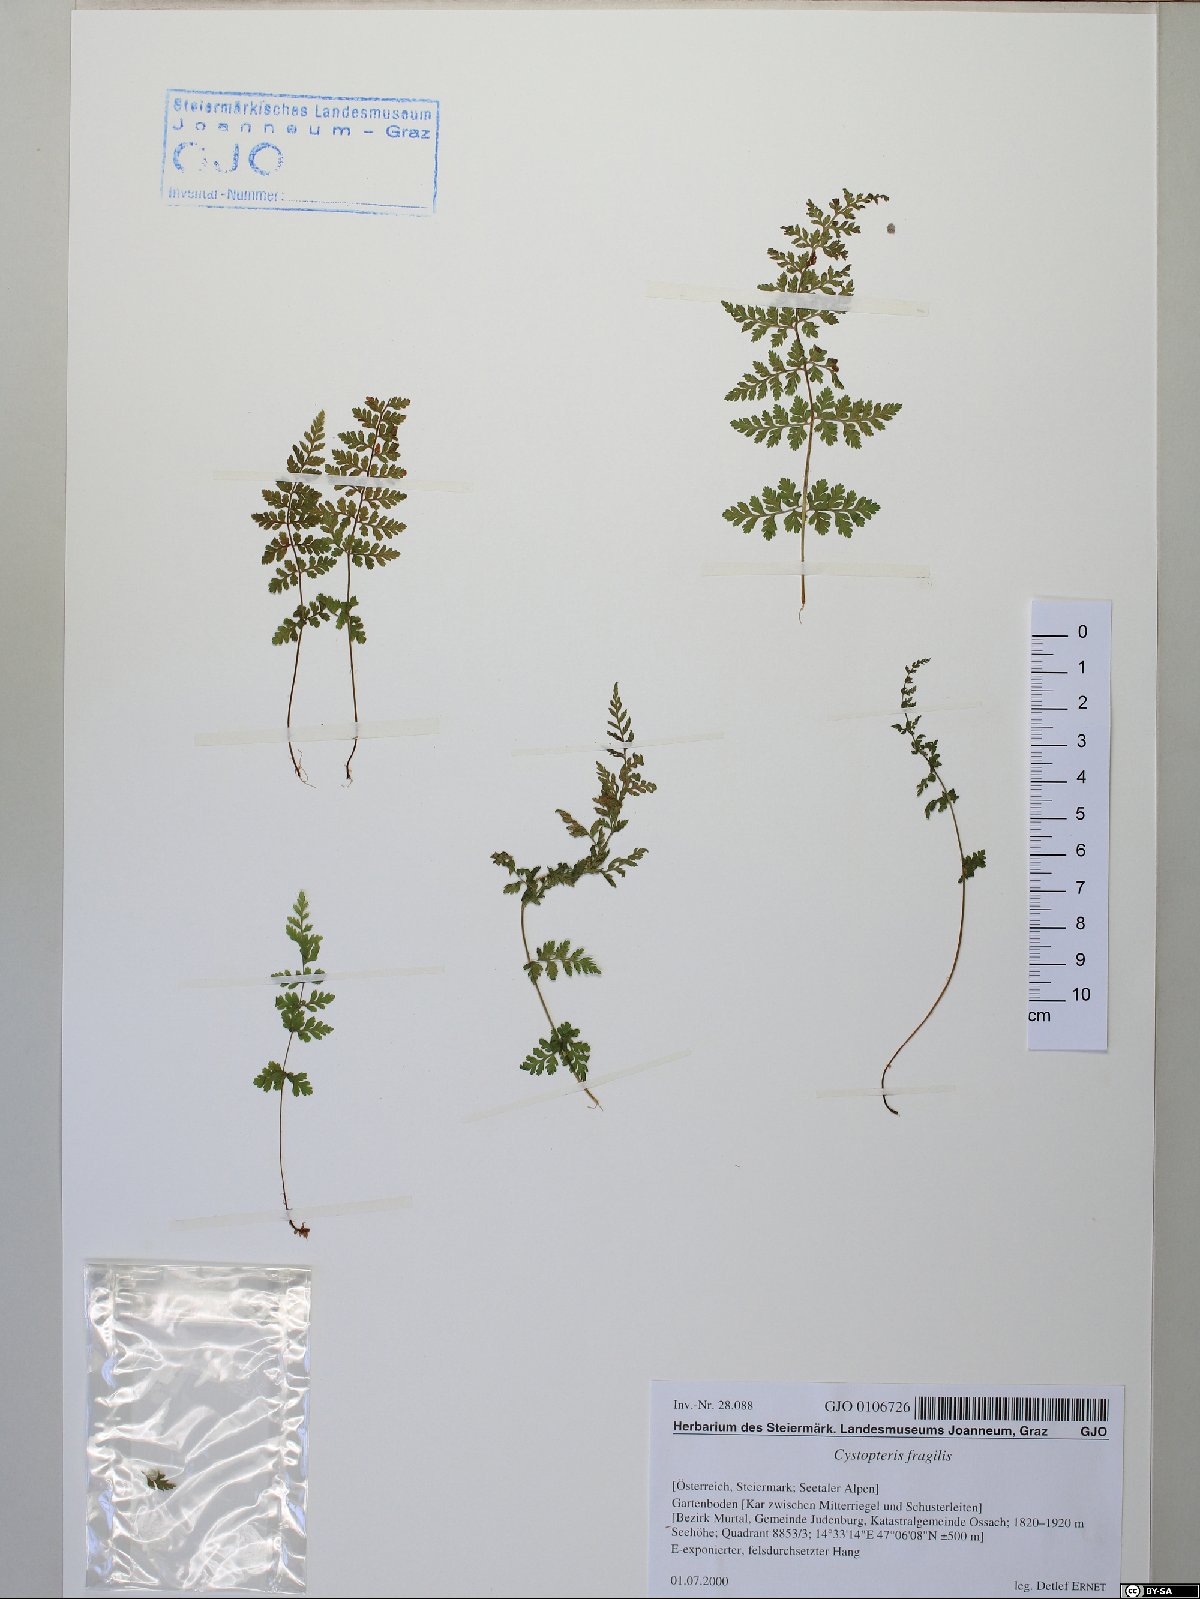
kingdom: Plantae
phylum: Tracheophyta
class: Polypodiopsida
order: Polypodiales
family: Cystopteridaceae
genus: Cystopteris
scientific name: Cystopteris fragilis
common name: Brittle bladder fern
